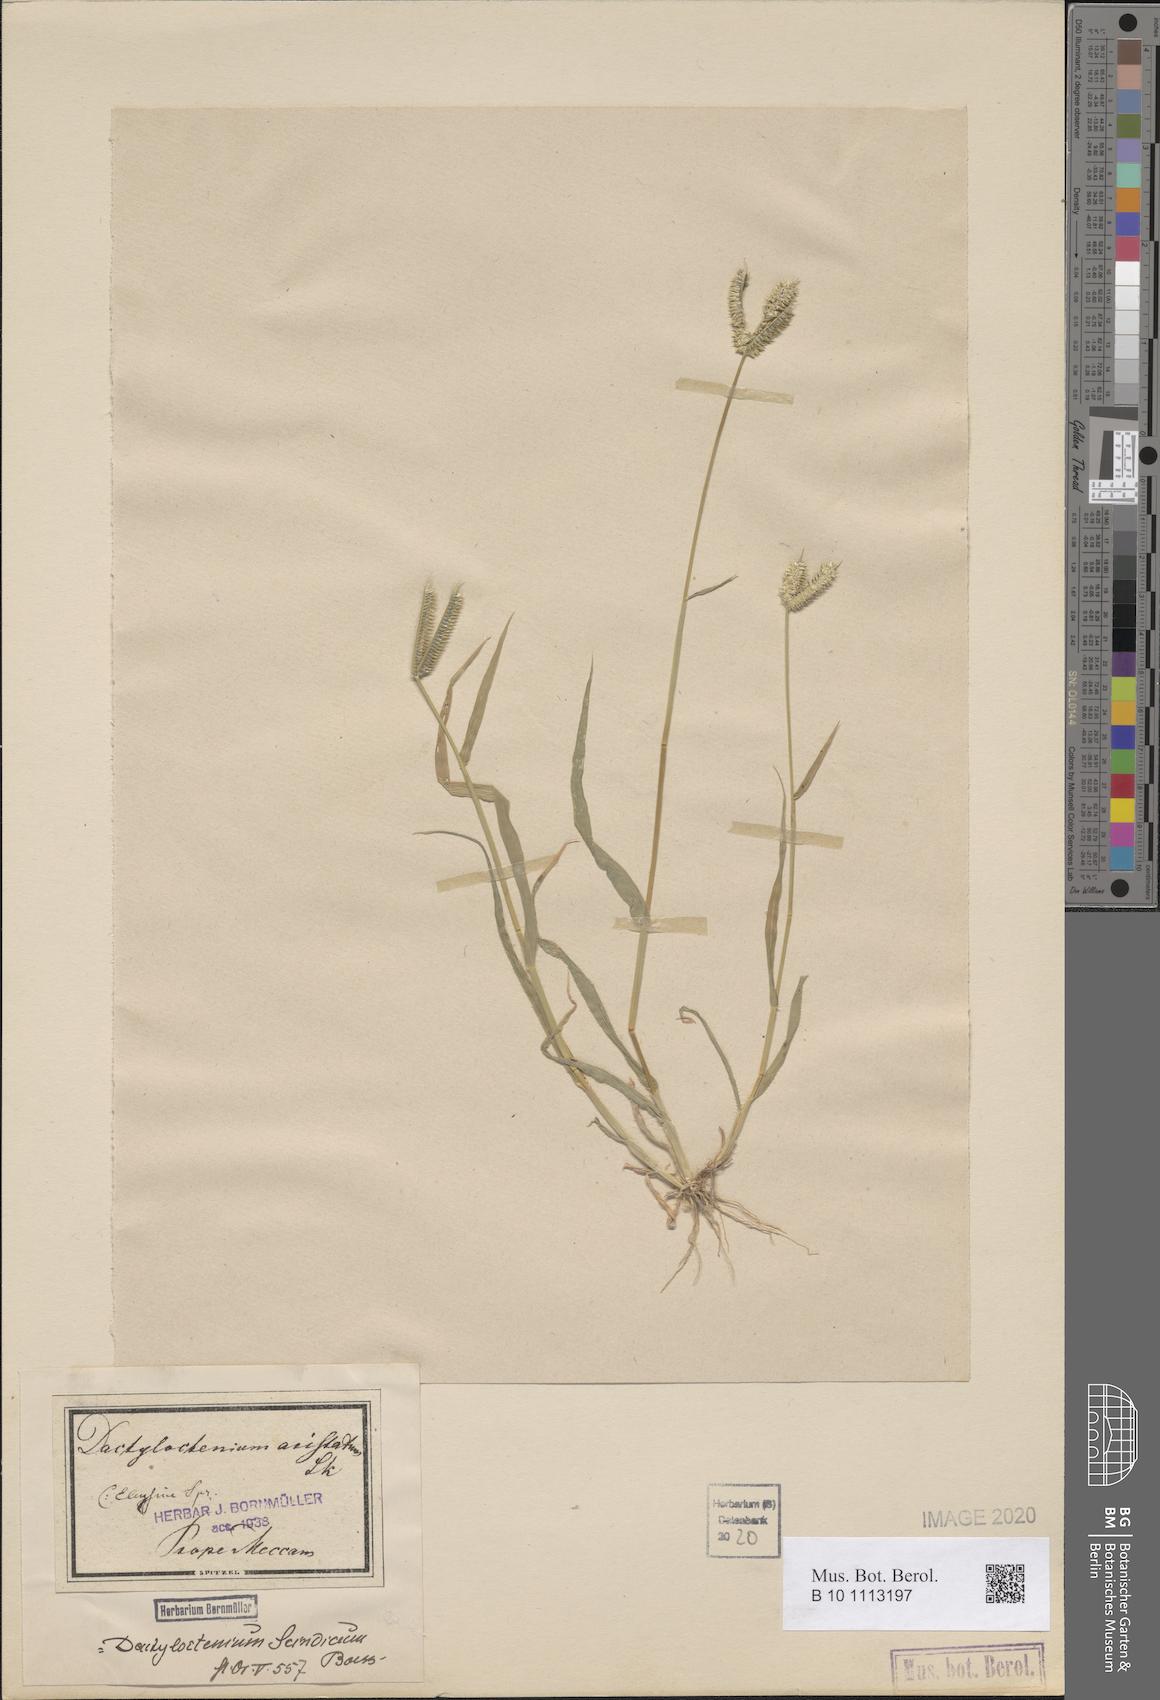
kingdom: Plantae
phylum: Tracheophyta
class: Liliopsida
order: Poales
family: Poaceae
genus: Dactyloctenium
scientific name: Dactyloctenium aristatum
